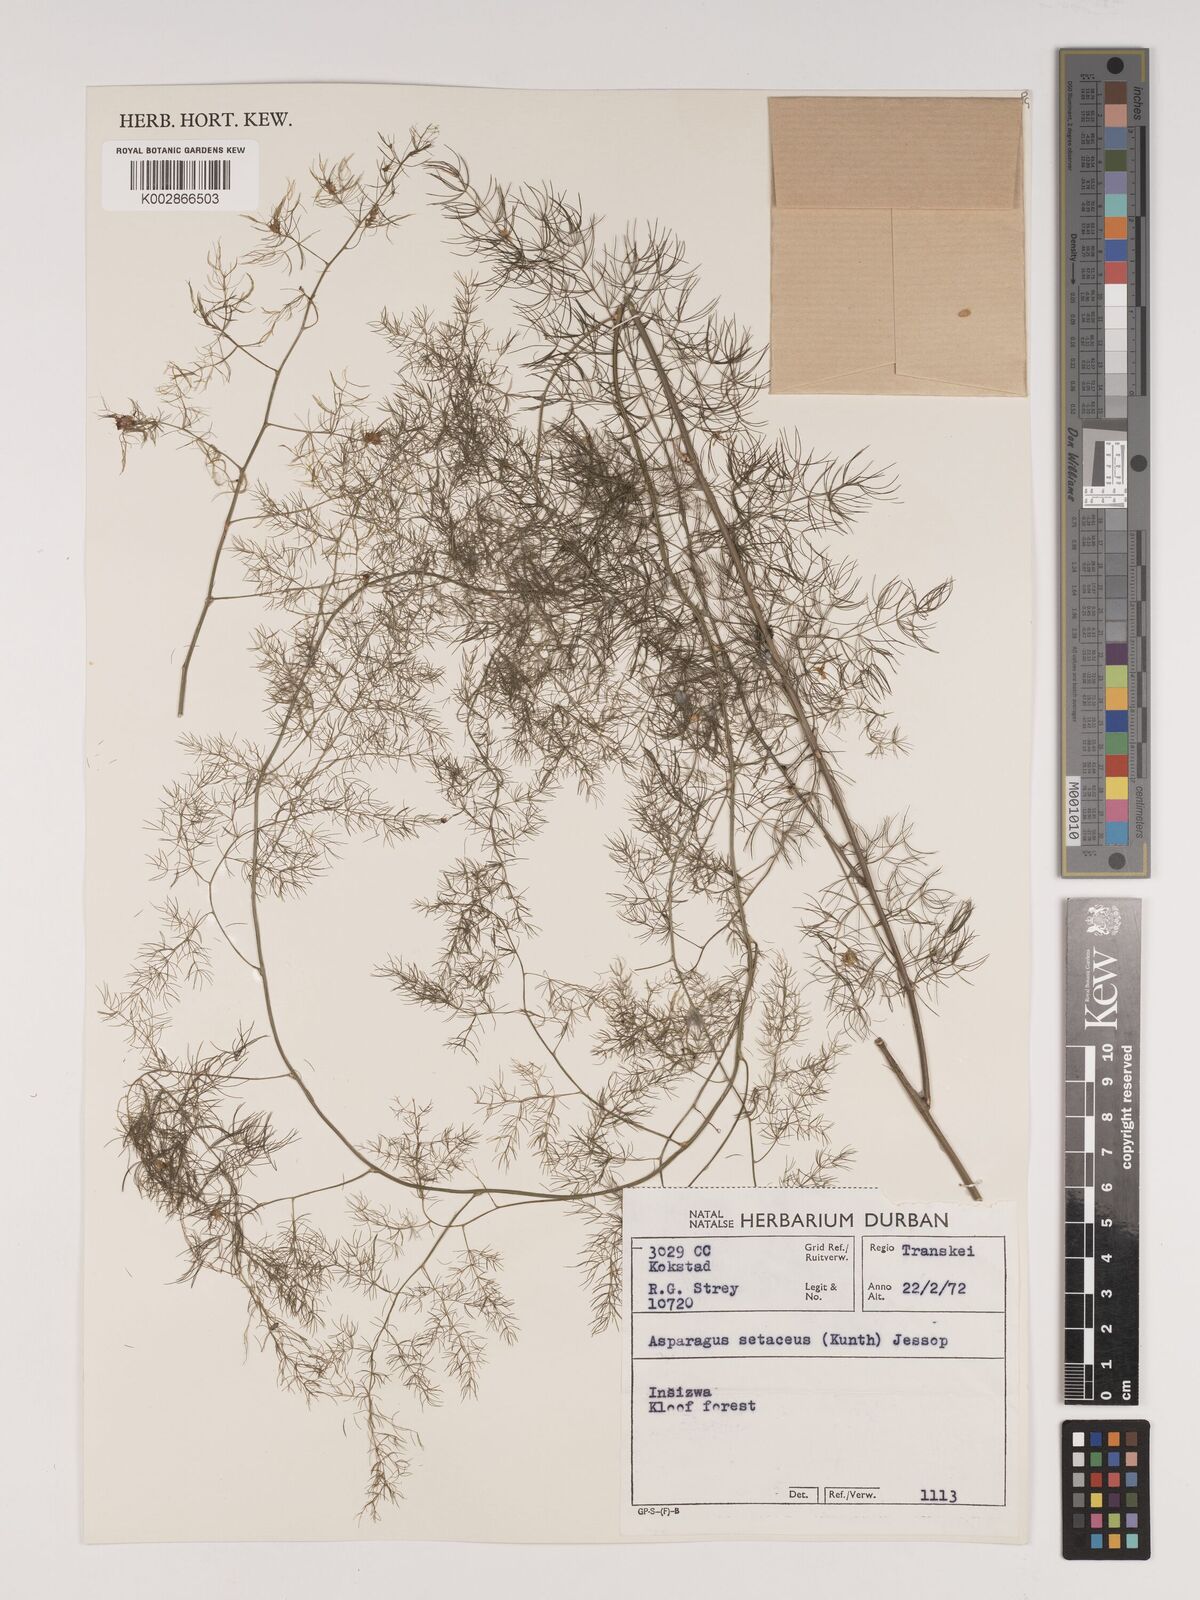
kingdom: Plantae
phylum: Tracheophyta
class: Liliopsida
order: Asparagales
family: Asparagaceae
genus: Asparagus
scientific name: Asparagus setaceus
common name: Common asparagus fern
